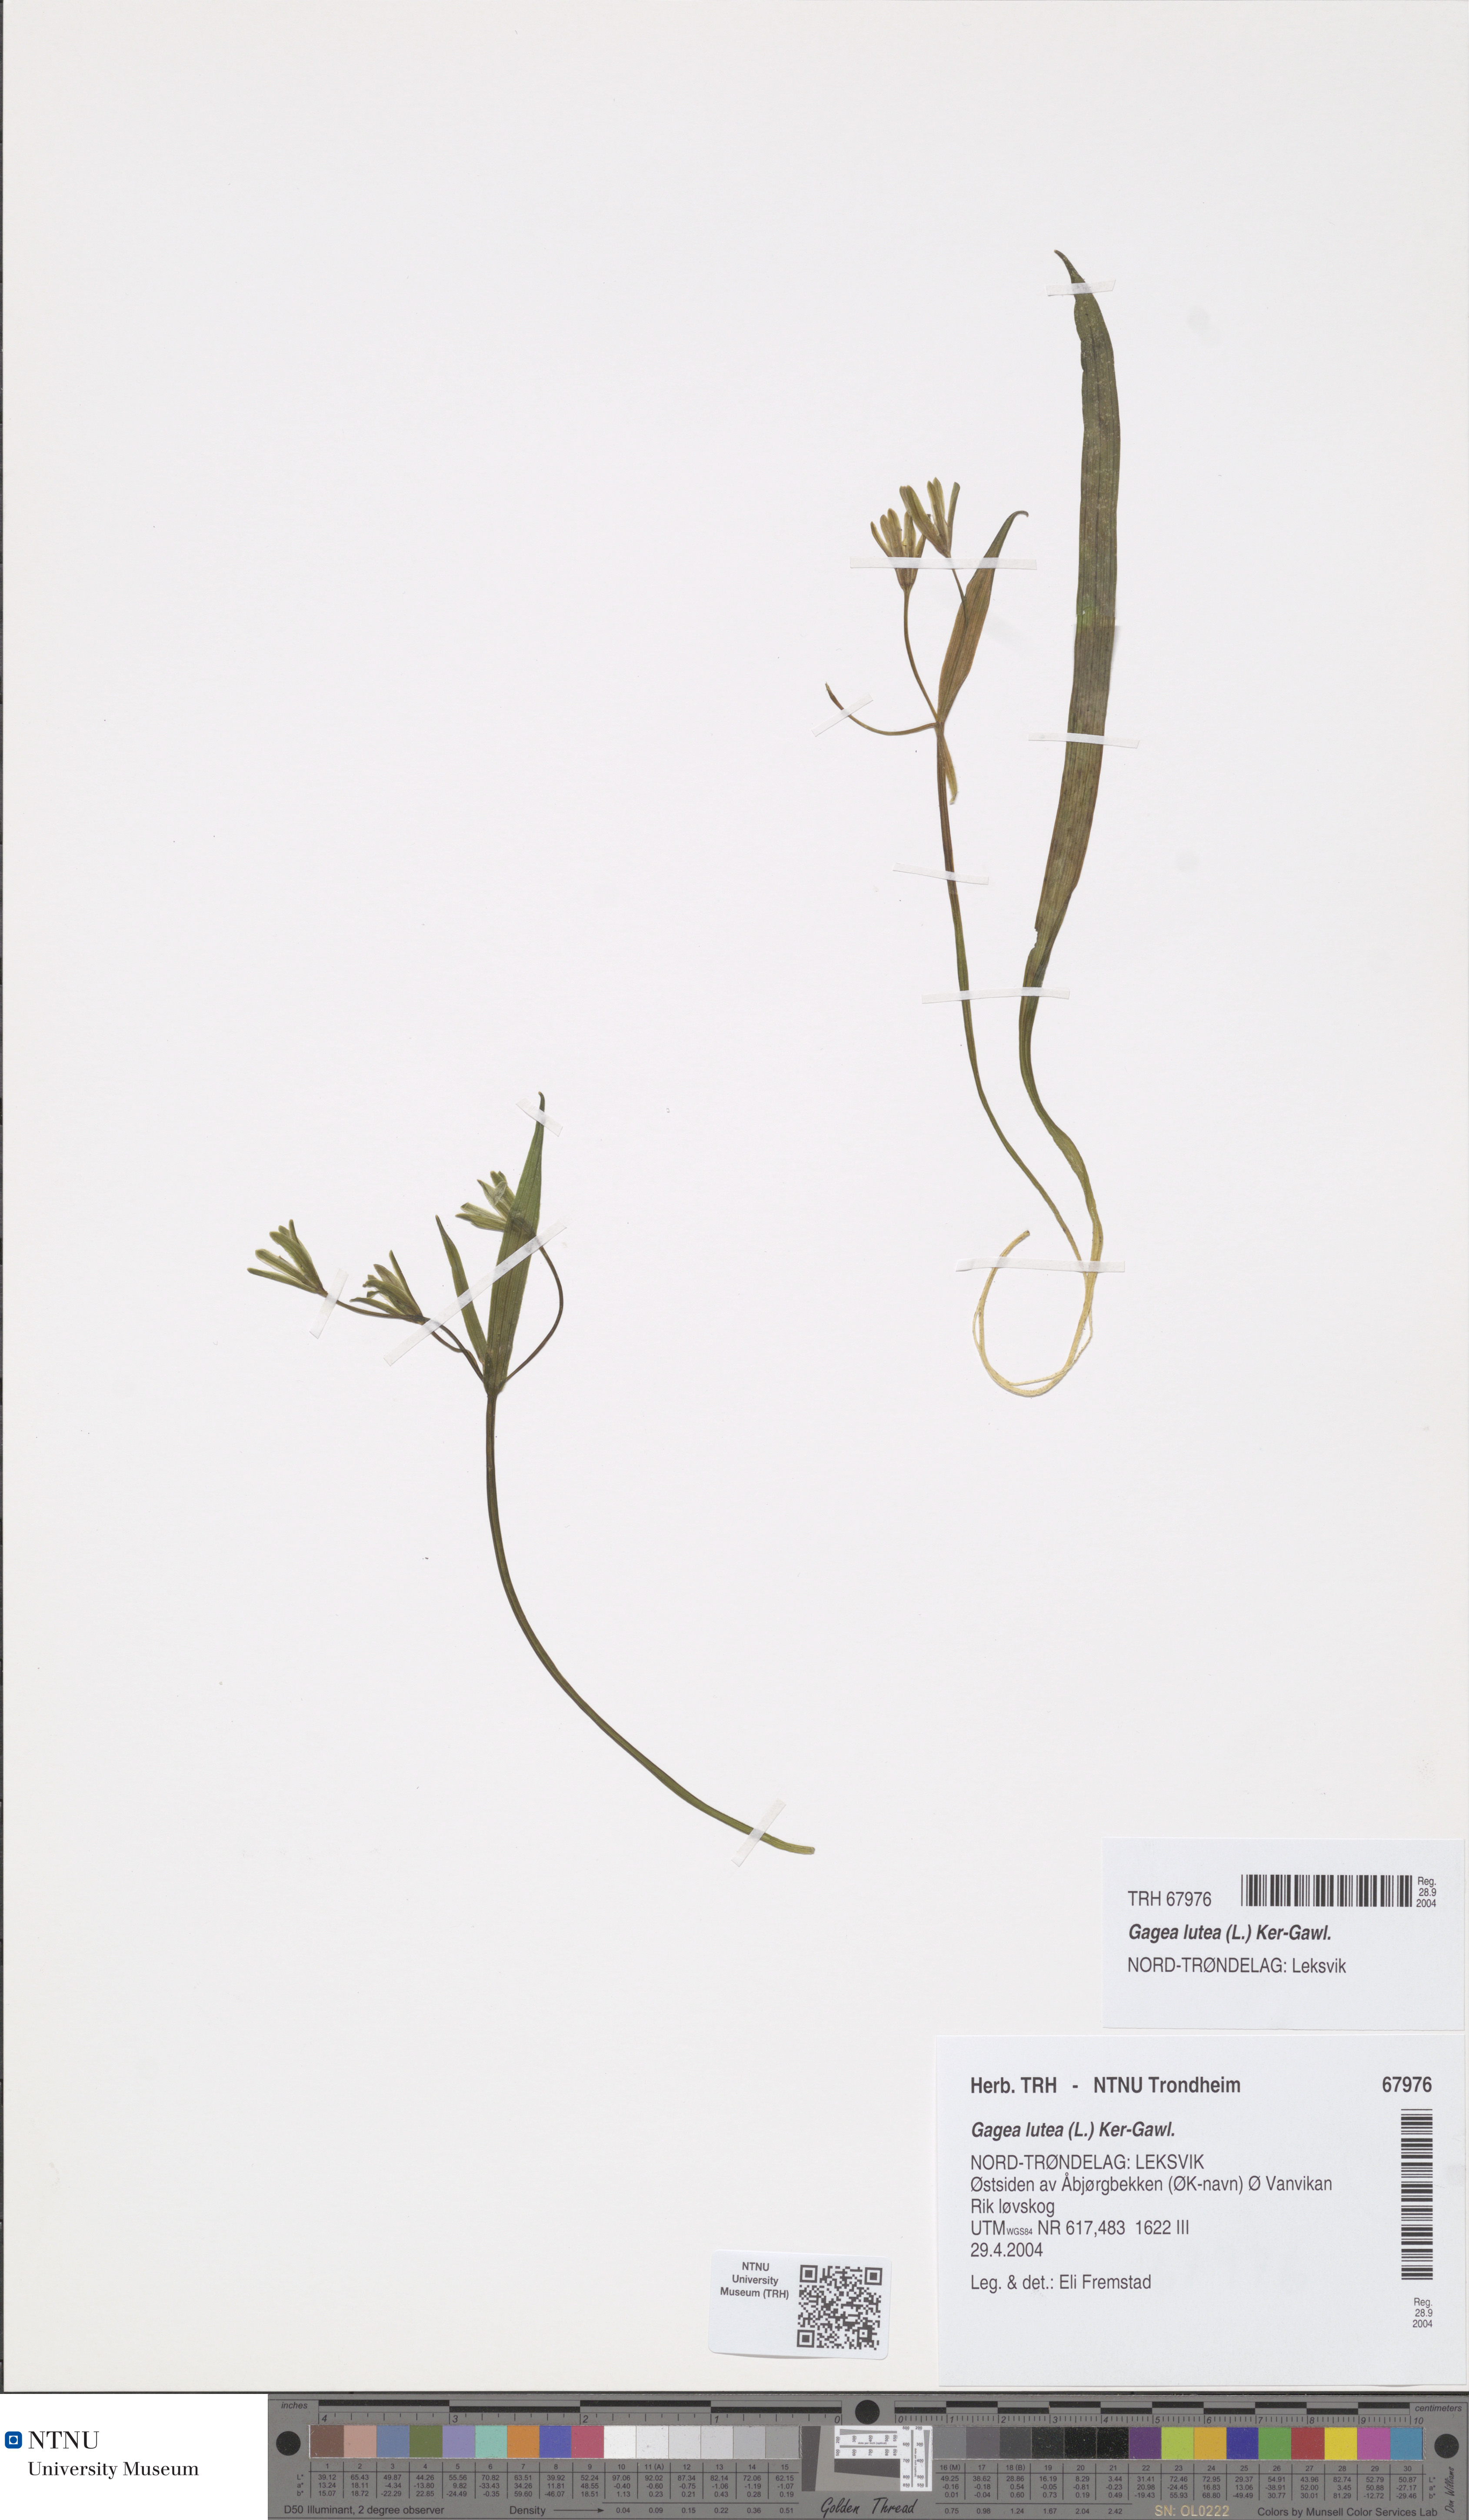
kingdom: Plantae
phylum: Tracheophyta
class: Liliopsida
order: Liliales
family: Liliaceae
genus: Gagea
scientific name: Gagea lutea
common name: Yellow star-of-bethlehem
